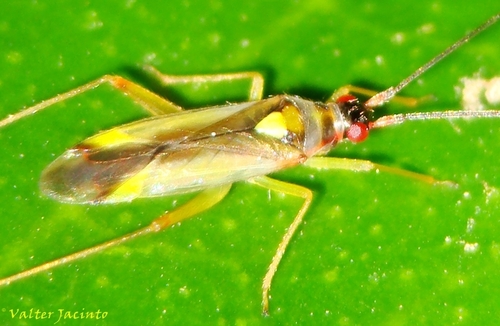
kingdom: Animalia
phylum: Arthropoda
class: Insecta
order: Hemiptera
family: Miridae
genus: Campyloneura
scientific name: Campyloneura virgula
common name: Predatory bug
